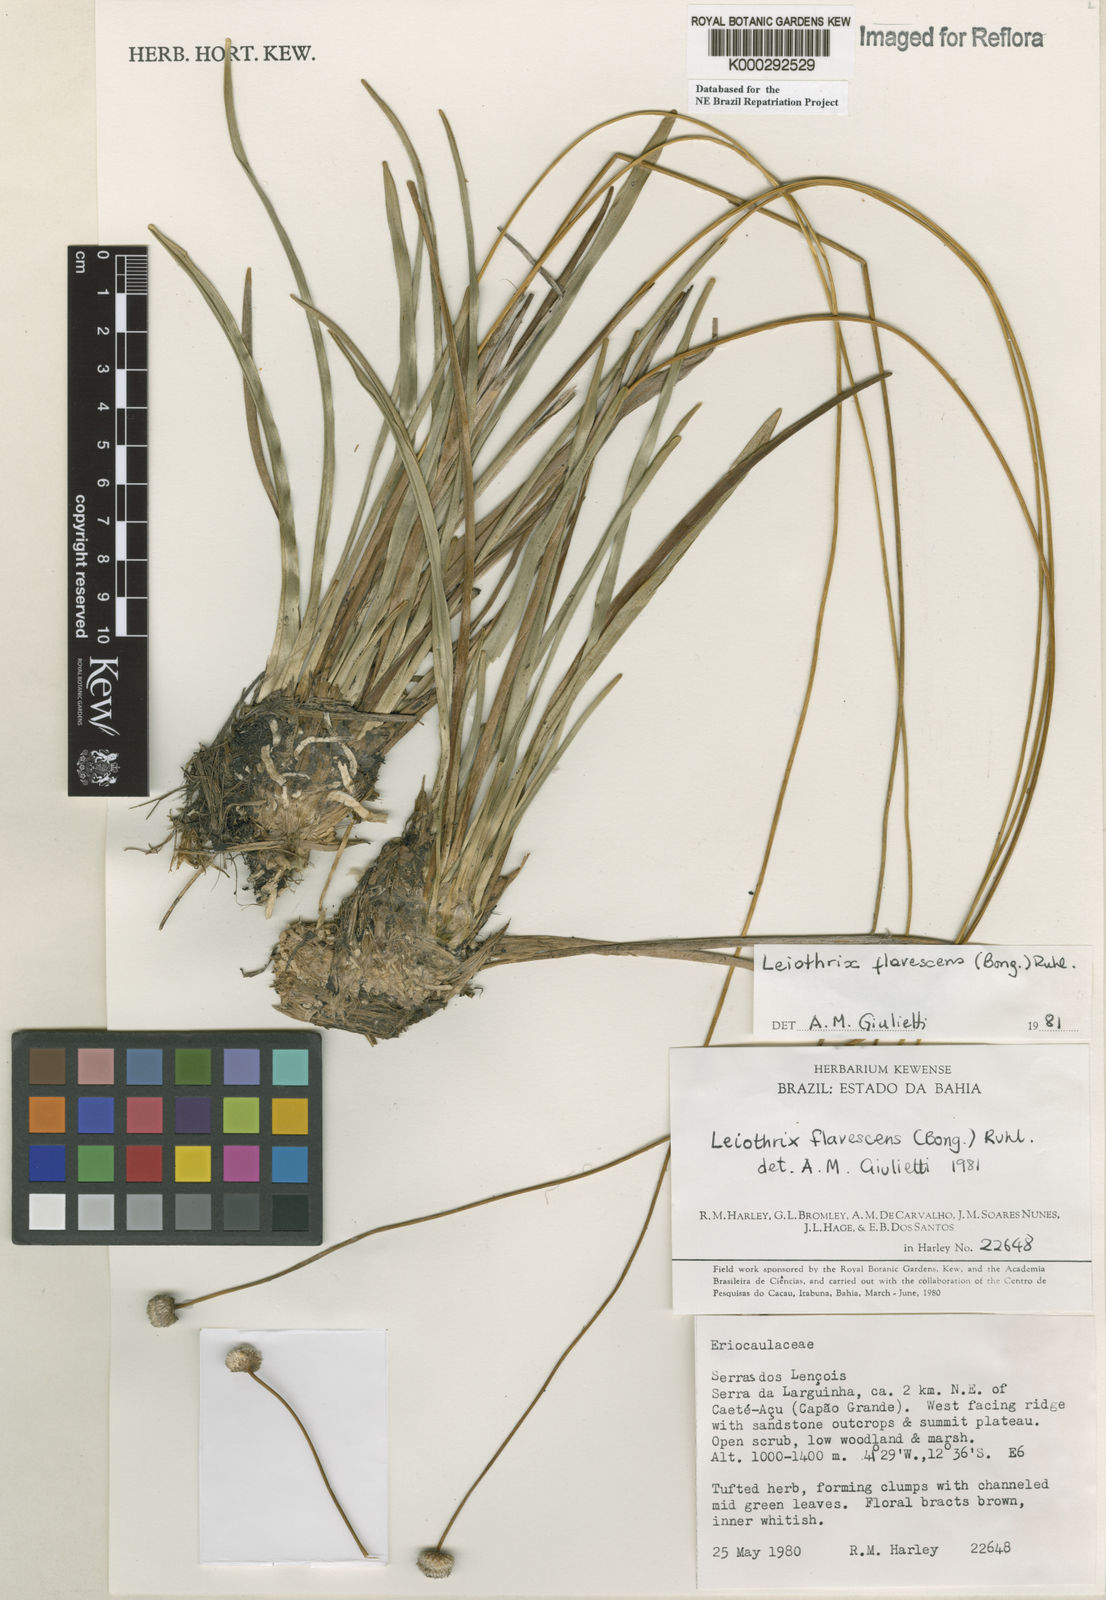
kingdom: Plantae
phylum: Tracheophyta
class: Liliopsida
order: Poales
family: Eriocaulaceae
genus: Leiothrix
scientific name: Leiothrix flavescens
